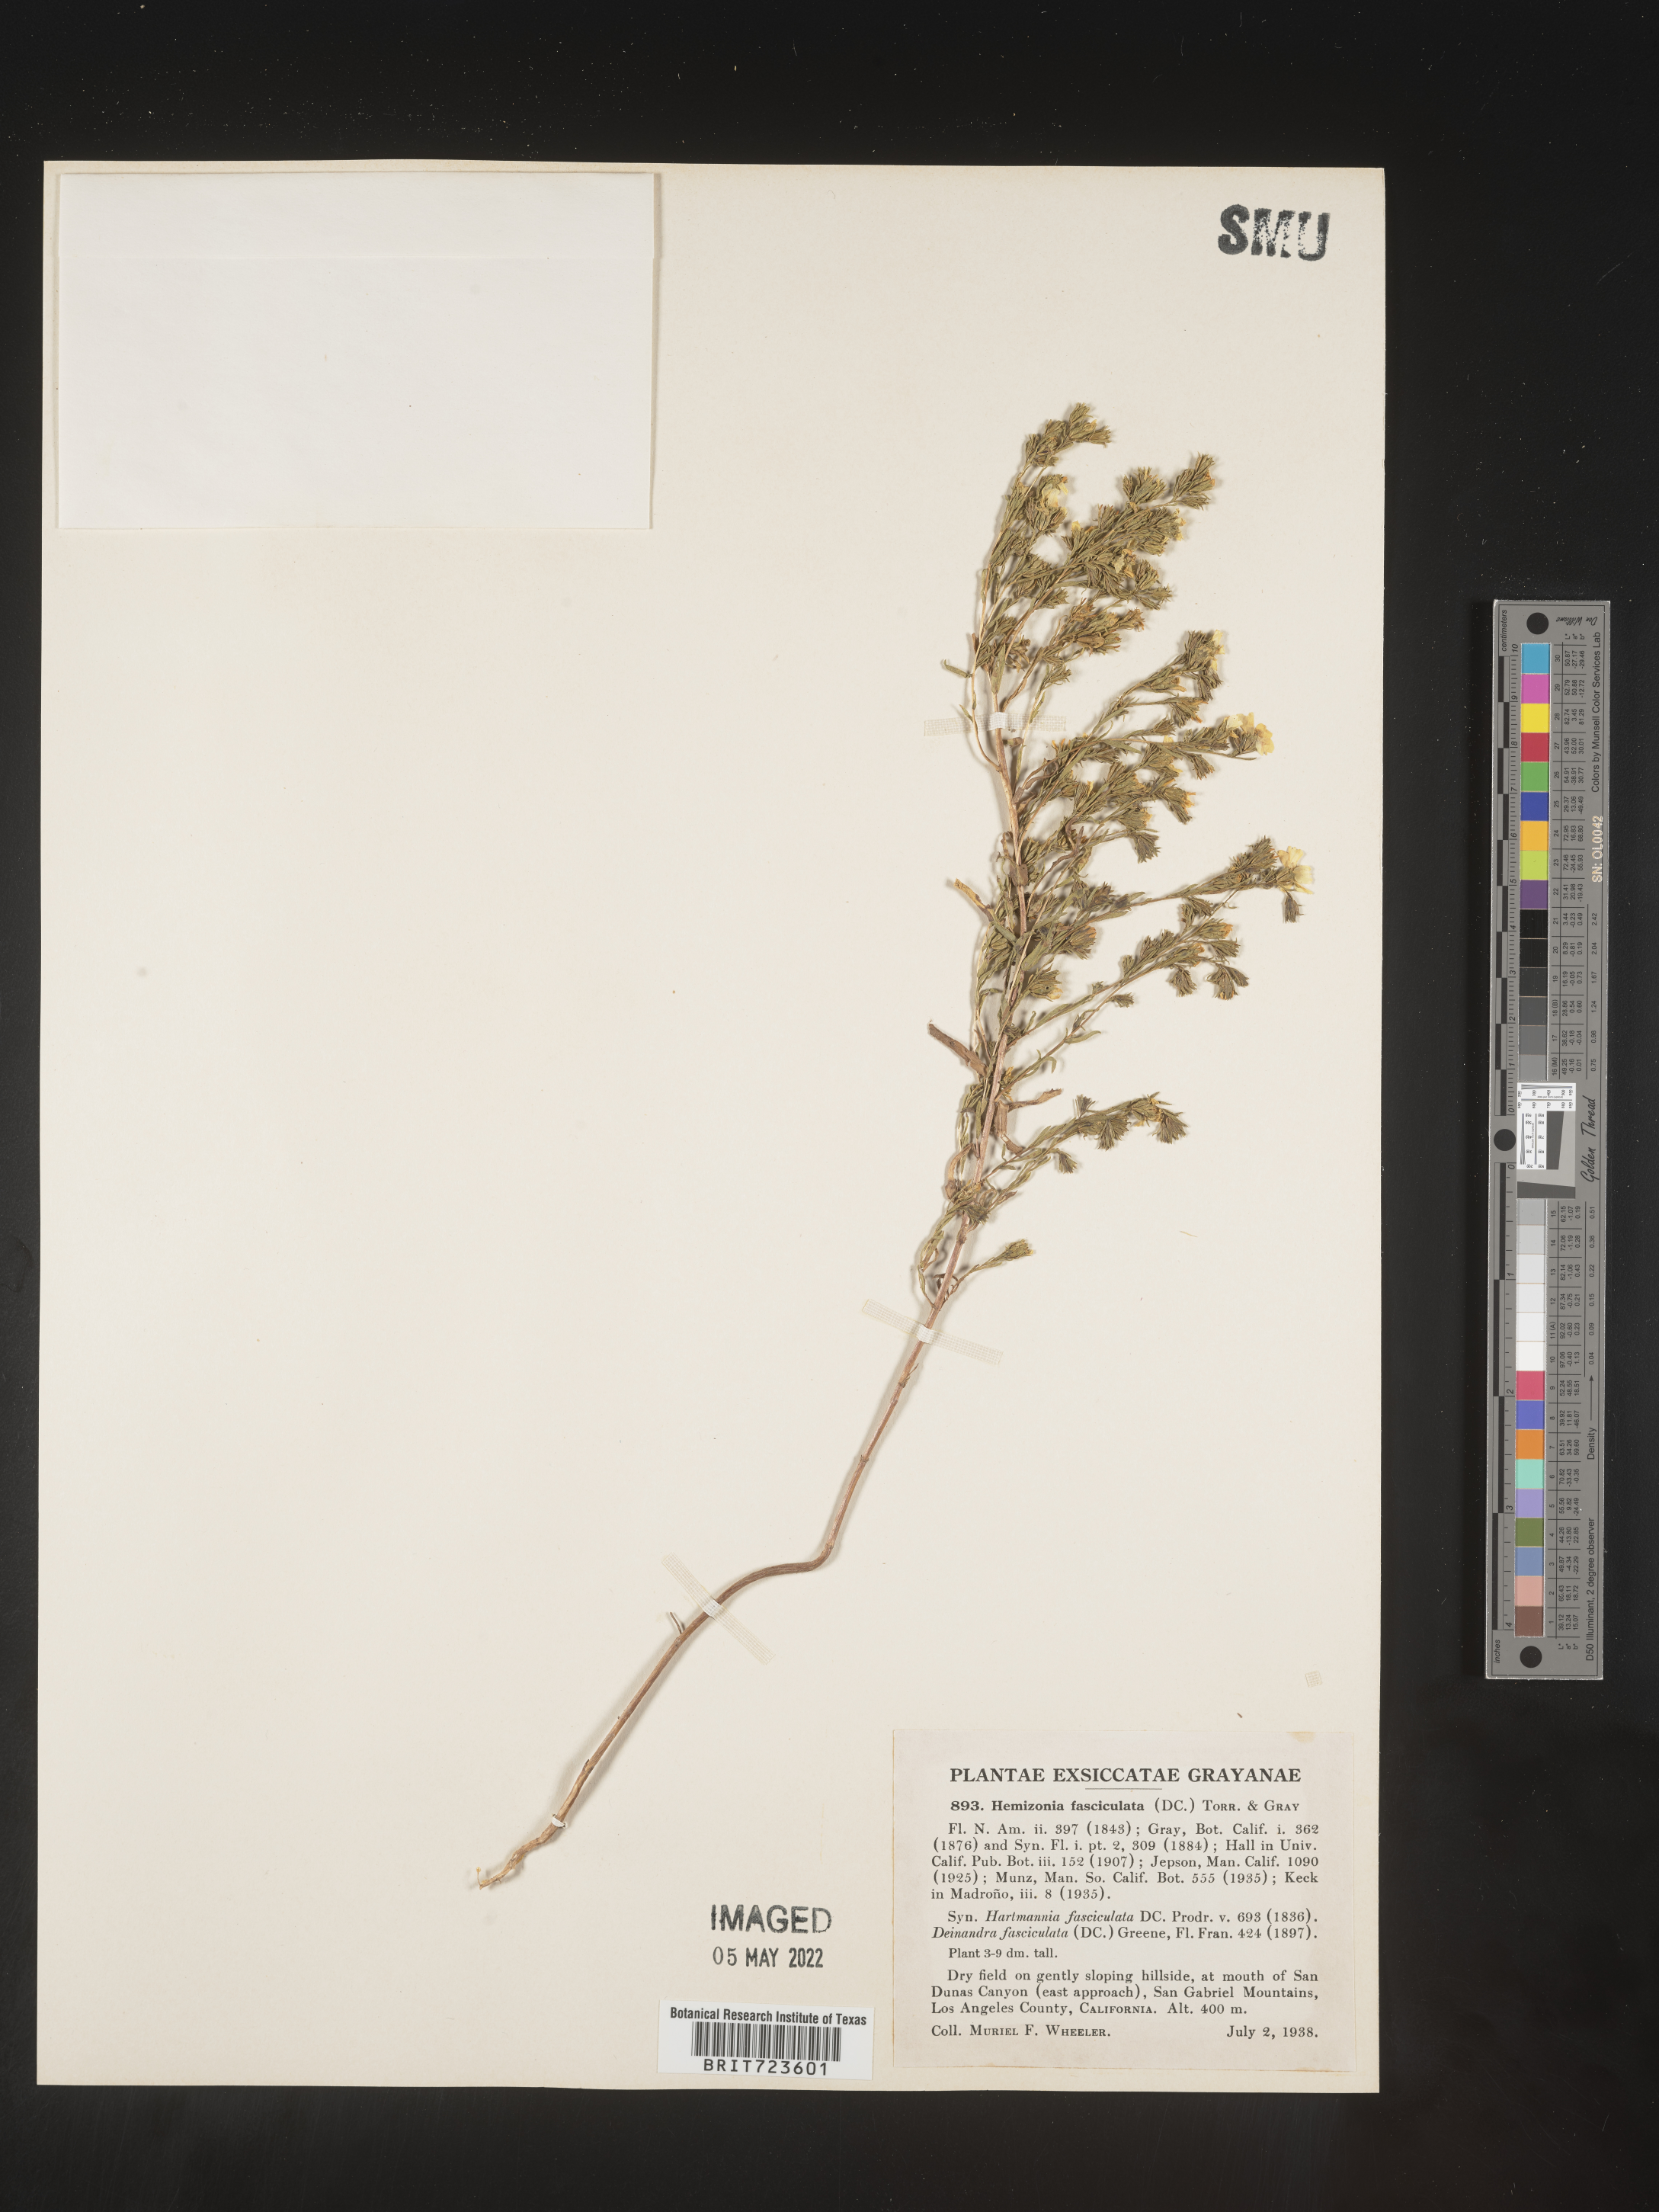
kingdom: Plantae
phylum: Tracheophyta
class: Magnoliopsida
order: Asterales
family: Asteraceae
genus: Hemizonia
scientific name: Hemizonia
